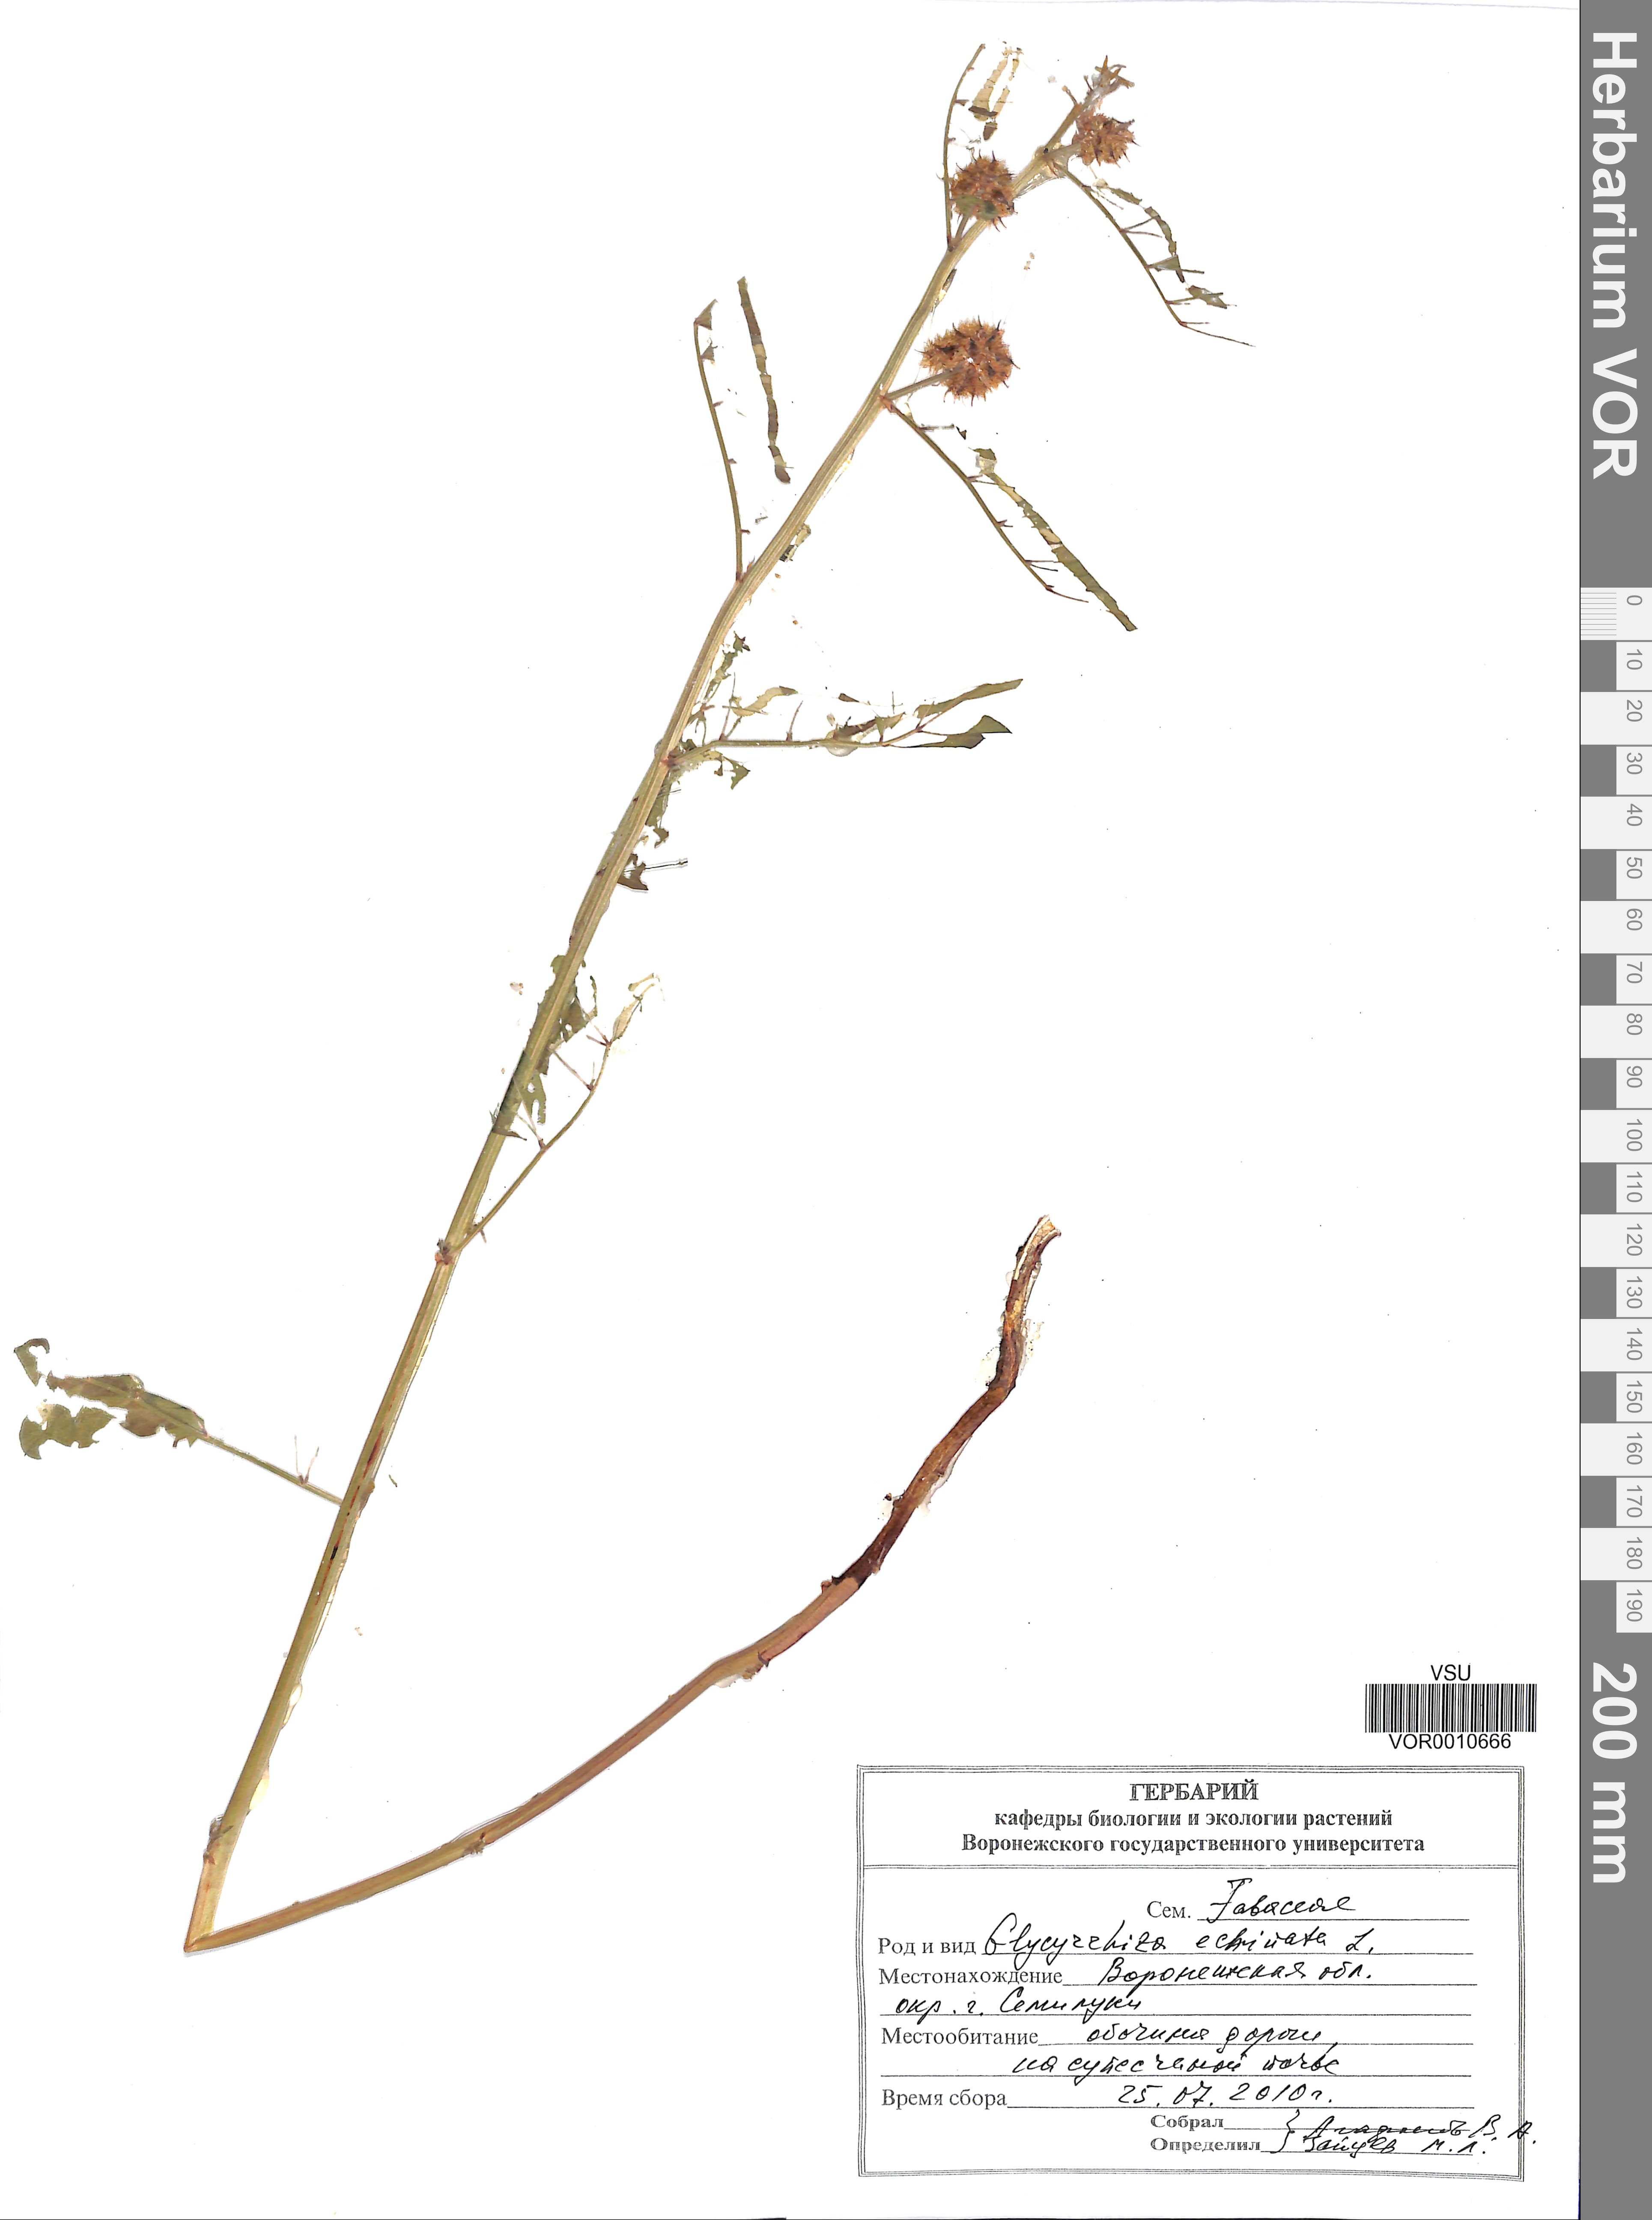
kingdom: Plantae
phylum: Tracheophyta
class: Magnoliopsida
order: Fabales
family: Fabaceae
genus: Glycyrrhiza
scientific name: Glycyrrhiza echinata
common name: German liquorice
